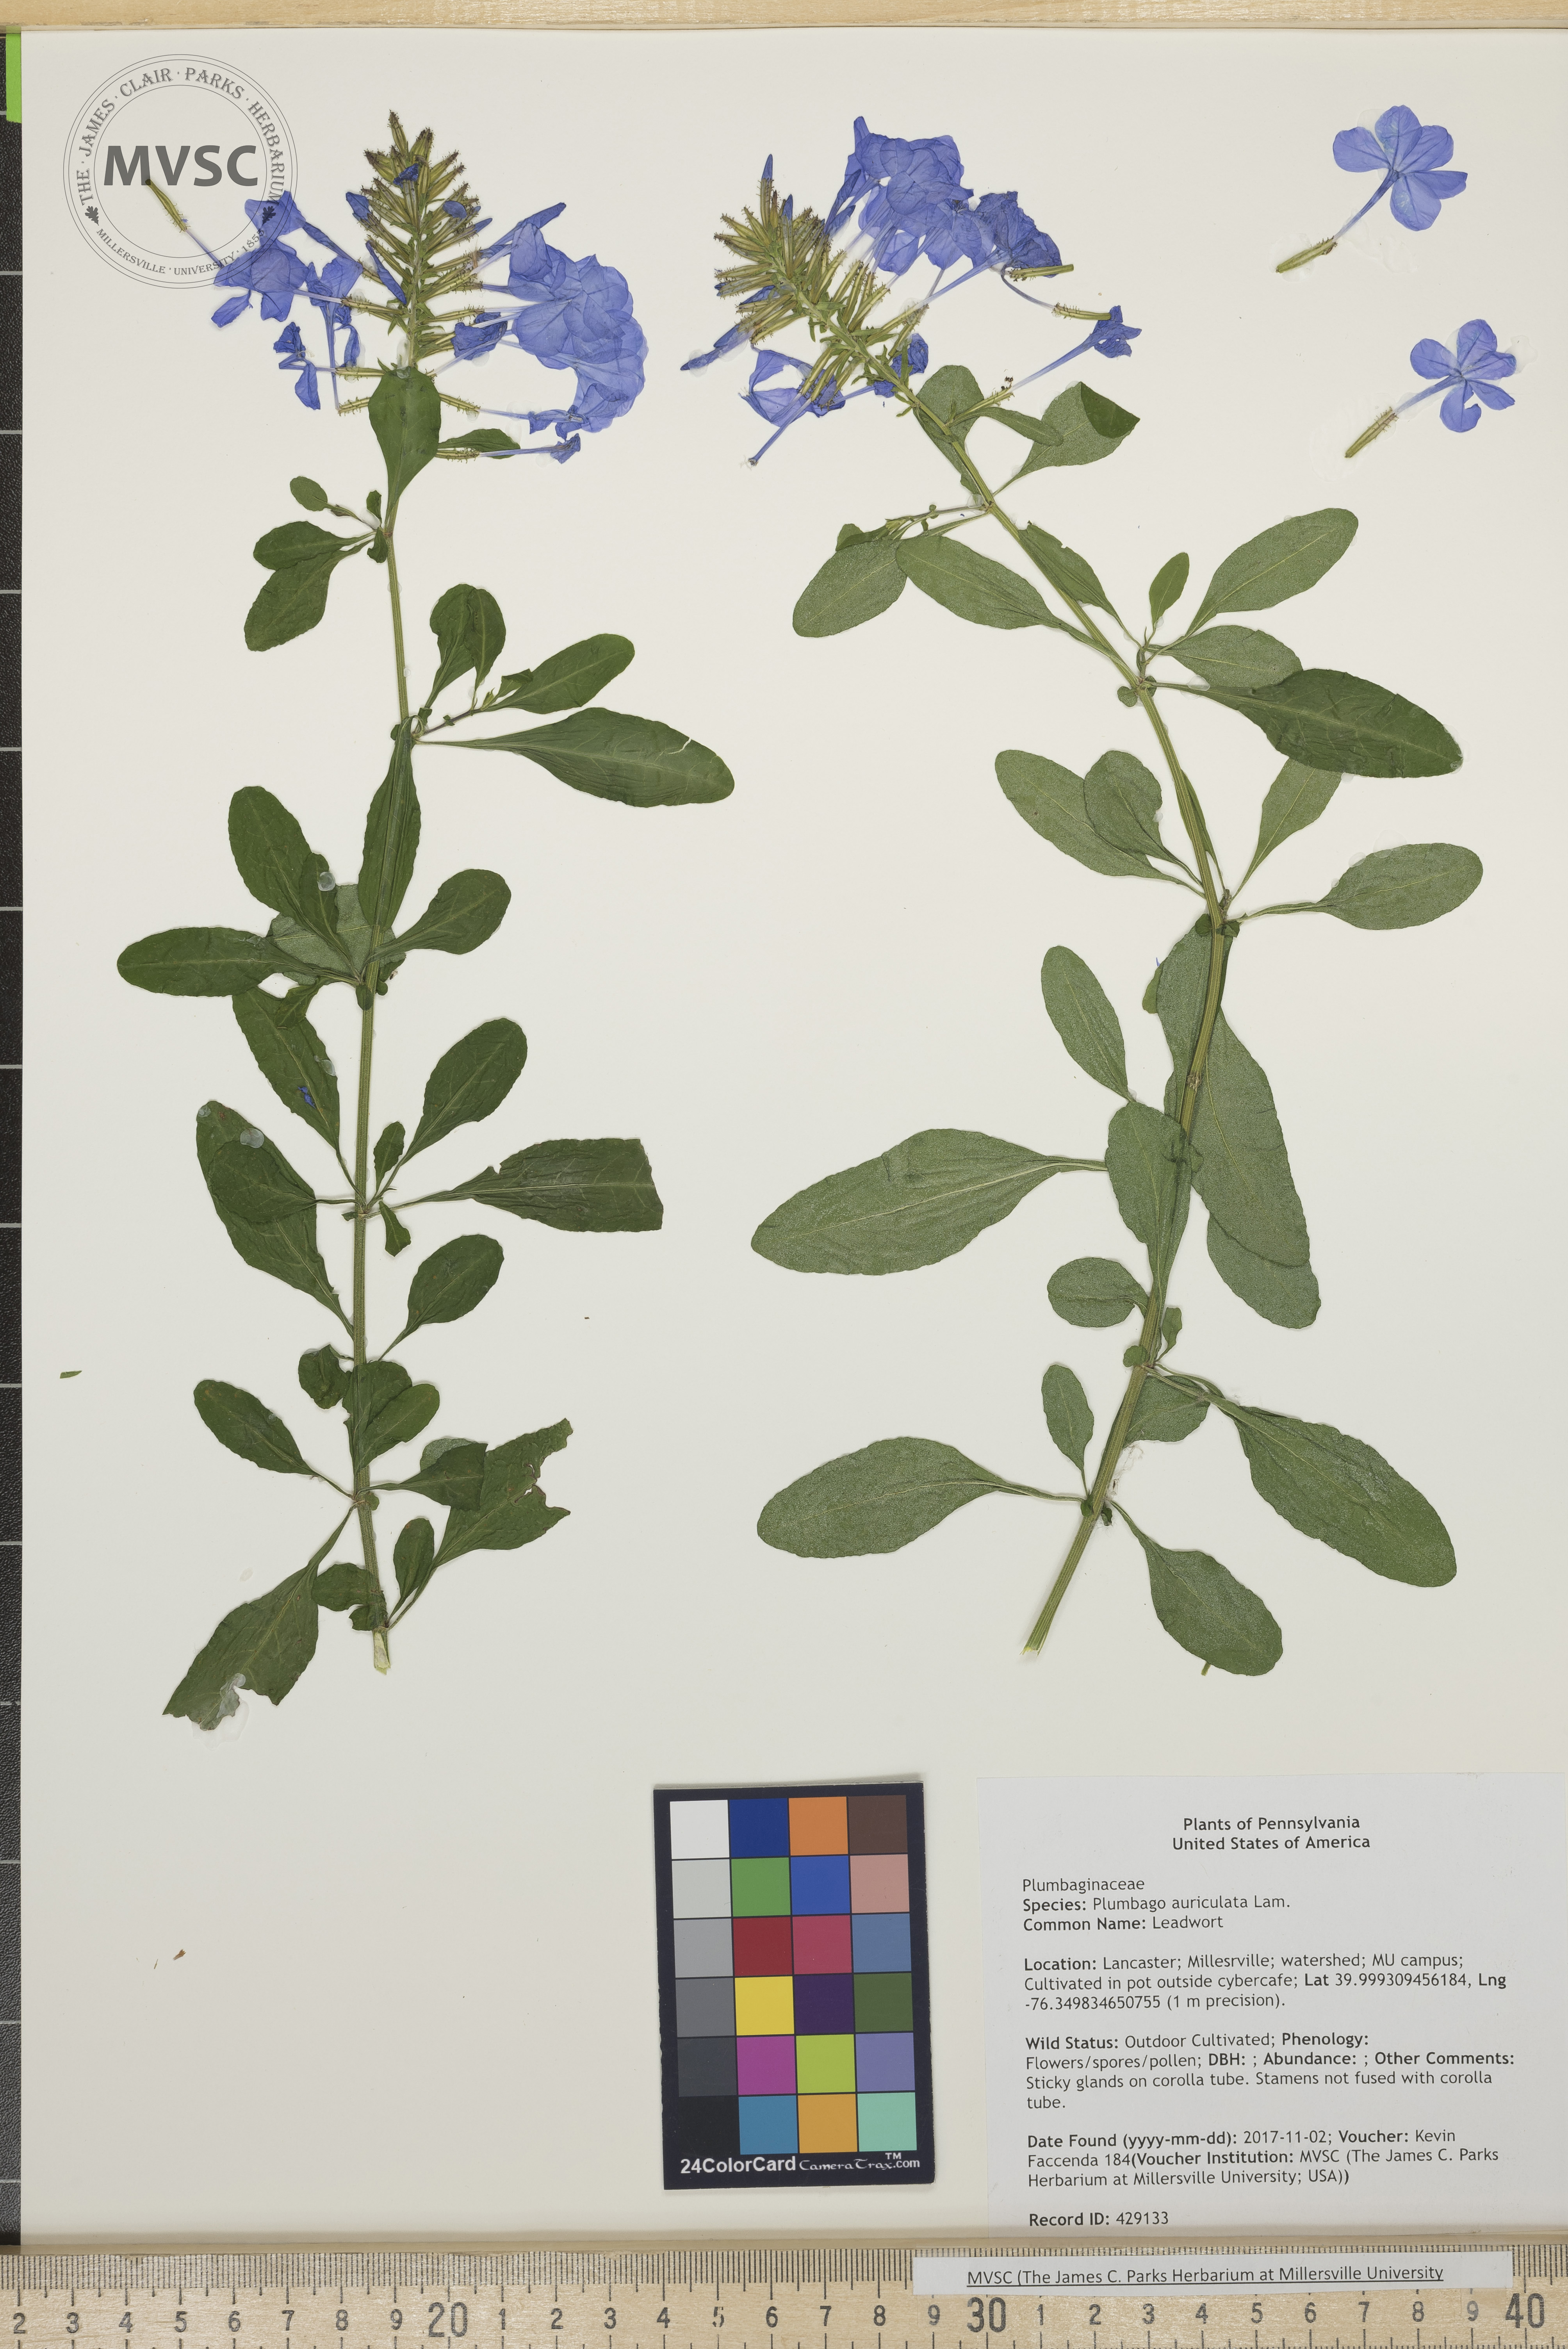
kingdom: Plantae
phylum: Tracheophyta
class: Magnoliopsida
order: Caryophyllales
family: Plumbaginaceae
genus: Plumbago
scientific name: Plumbago auriculata
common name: Leadwort
